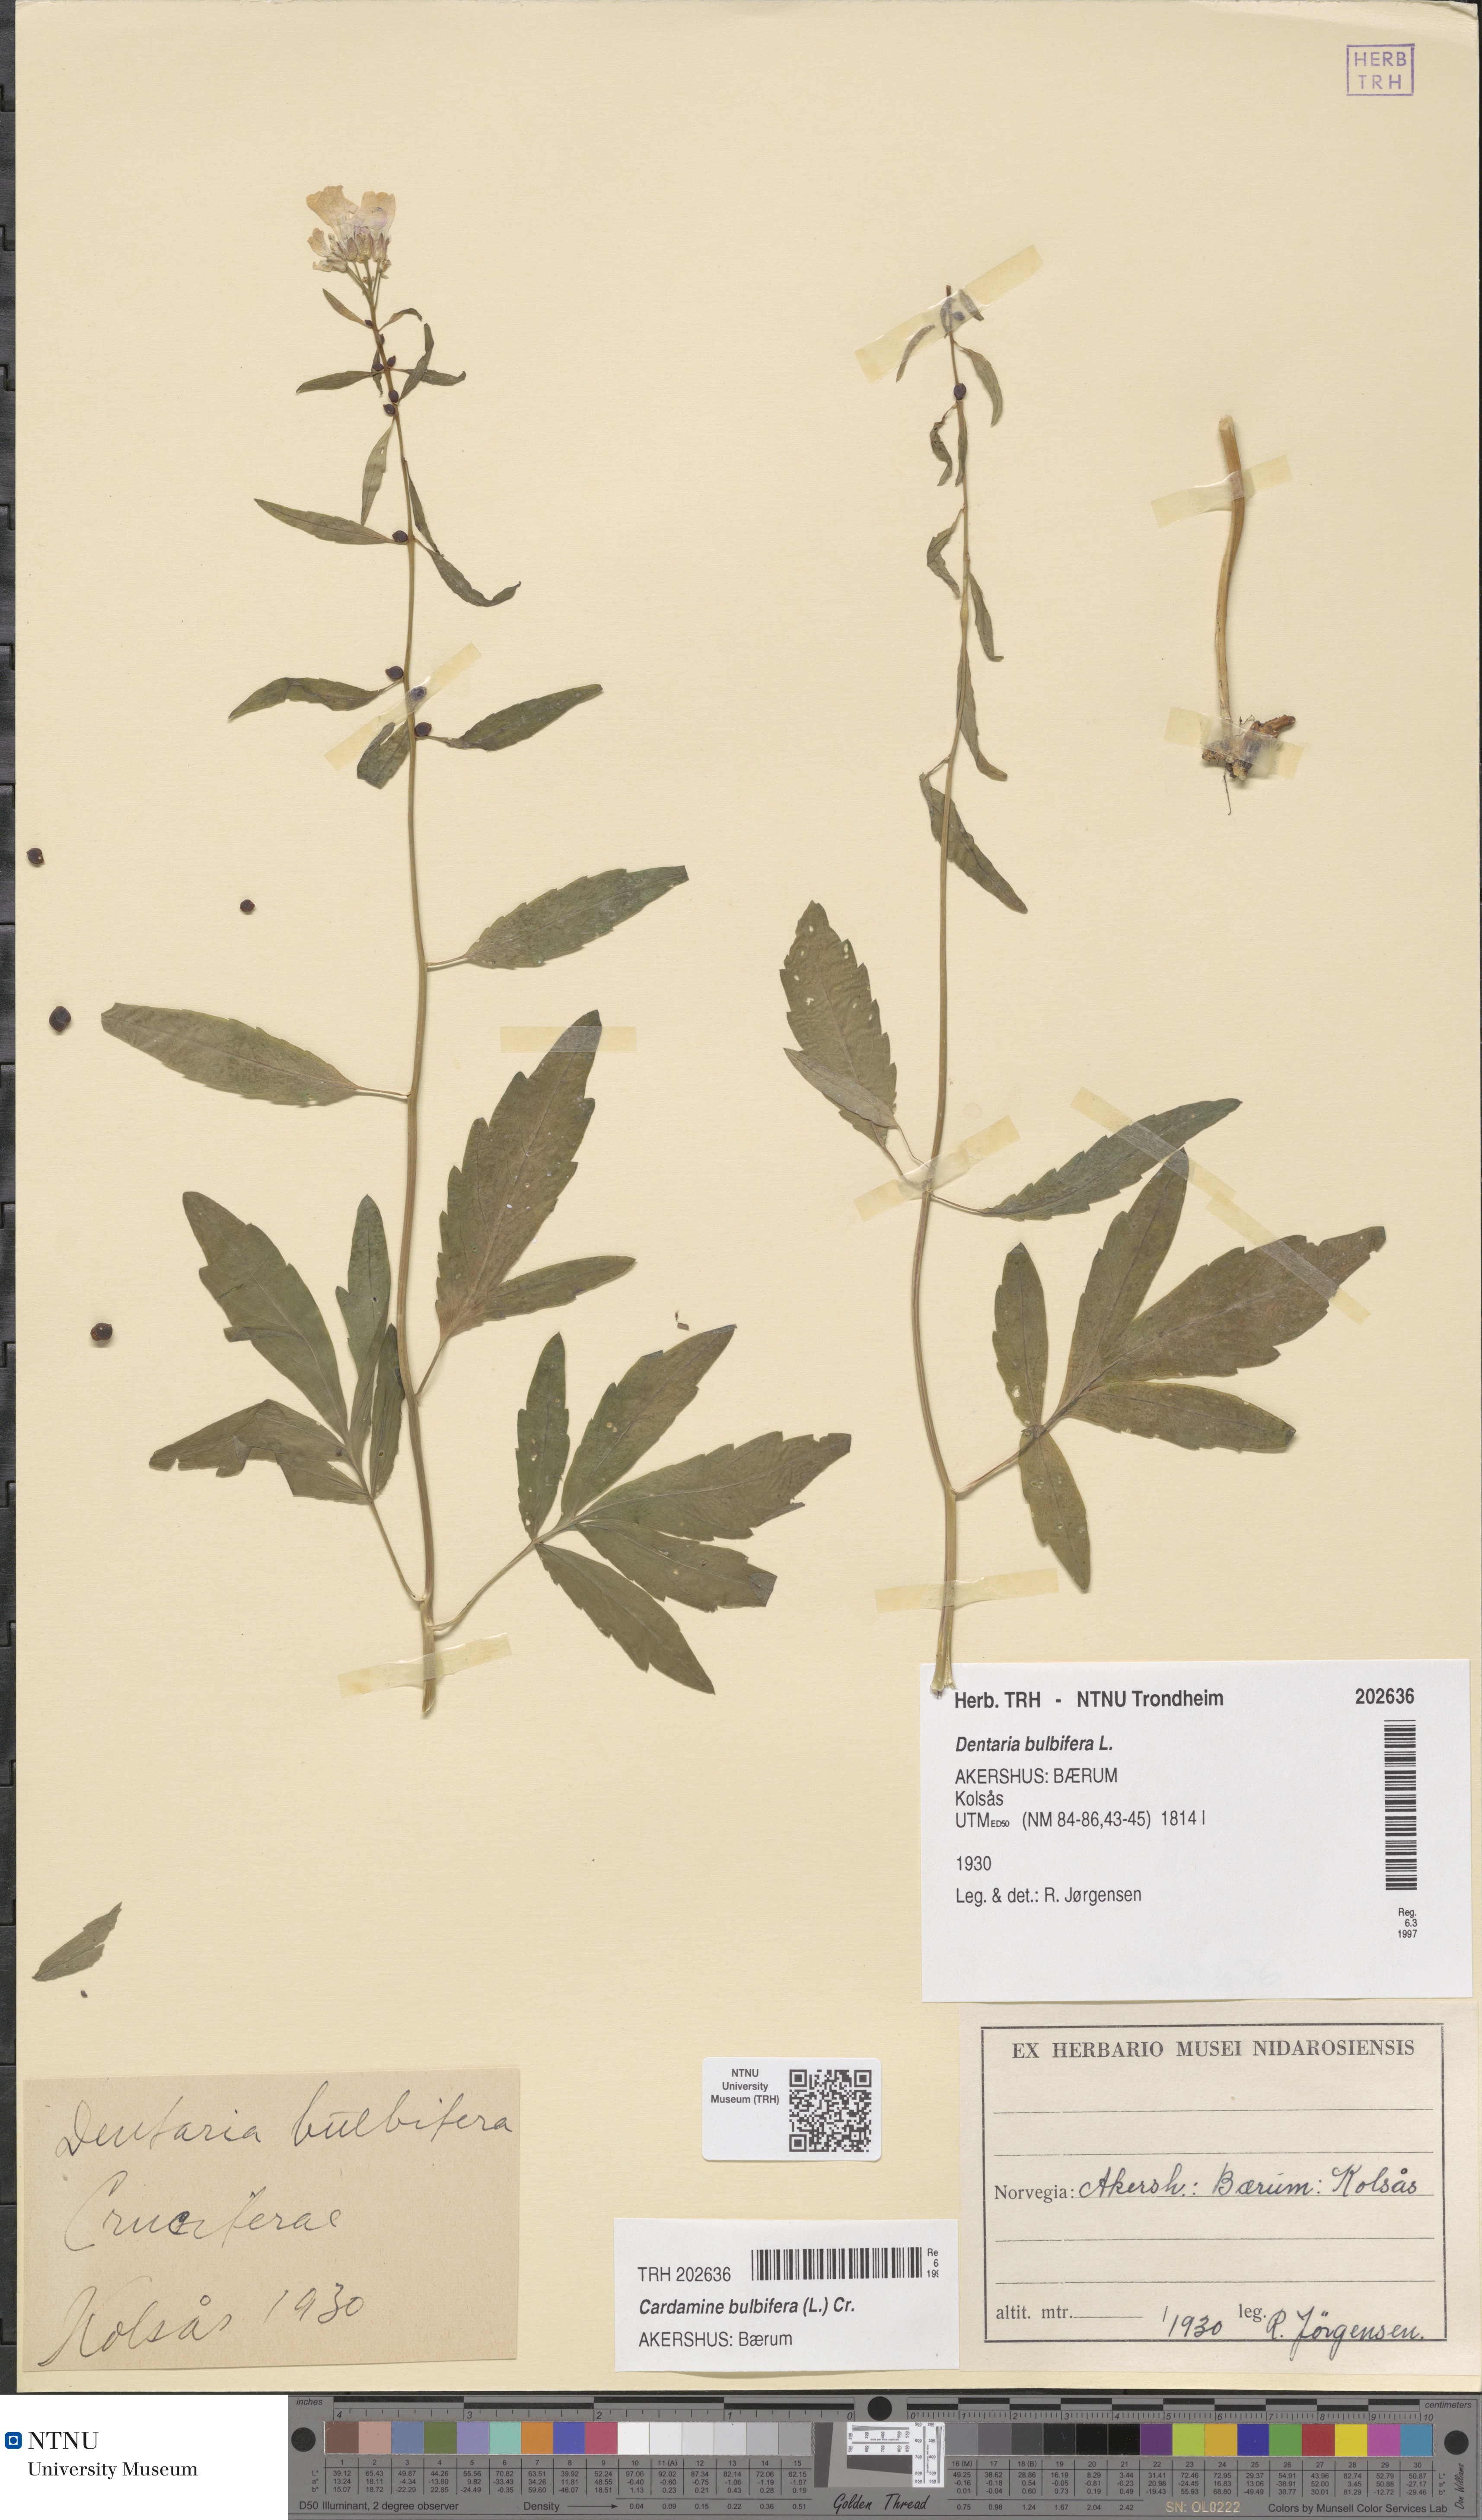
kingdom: Plantae
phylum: Tracheophyta
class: Magnoliopsida
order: Brassicales
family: Brassicaceae
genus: Cardamine
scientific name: Cardamine bulbifera
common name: Coralroot bittercress
